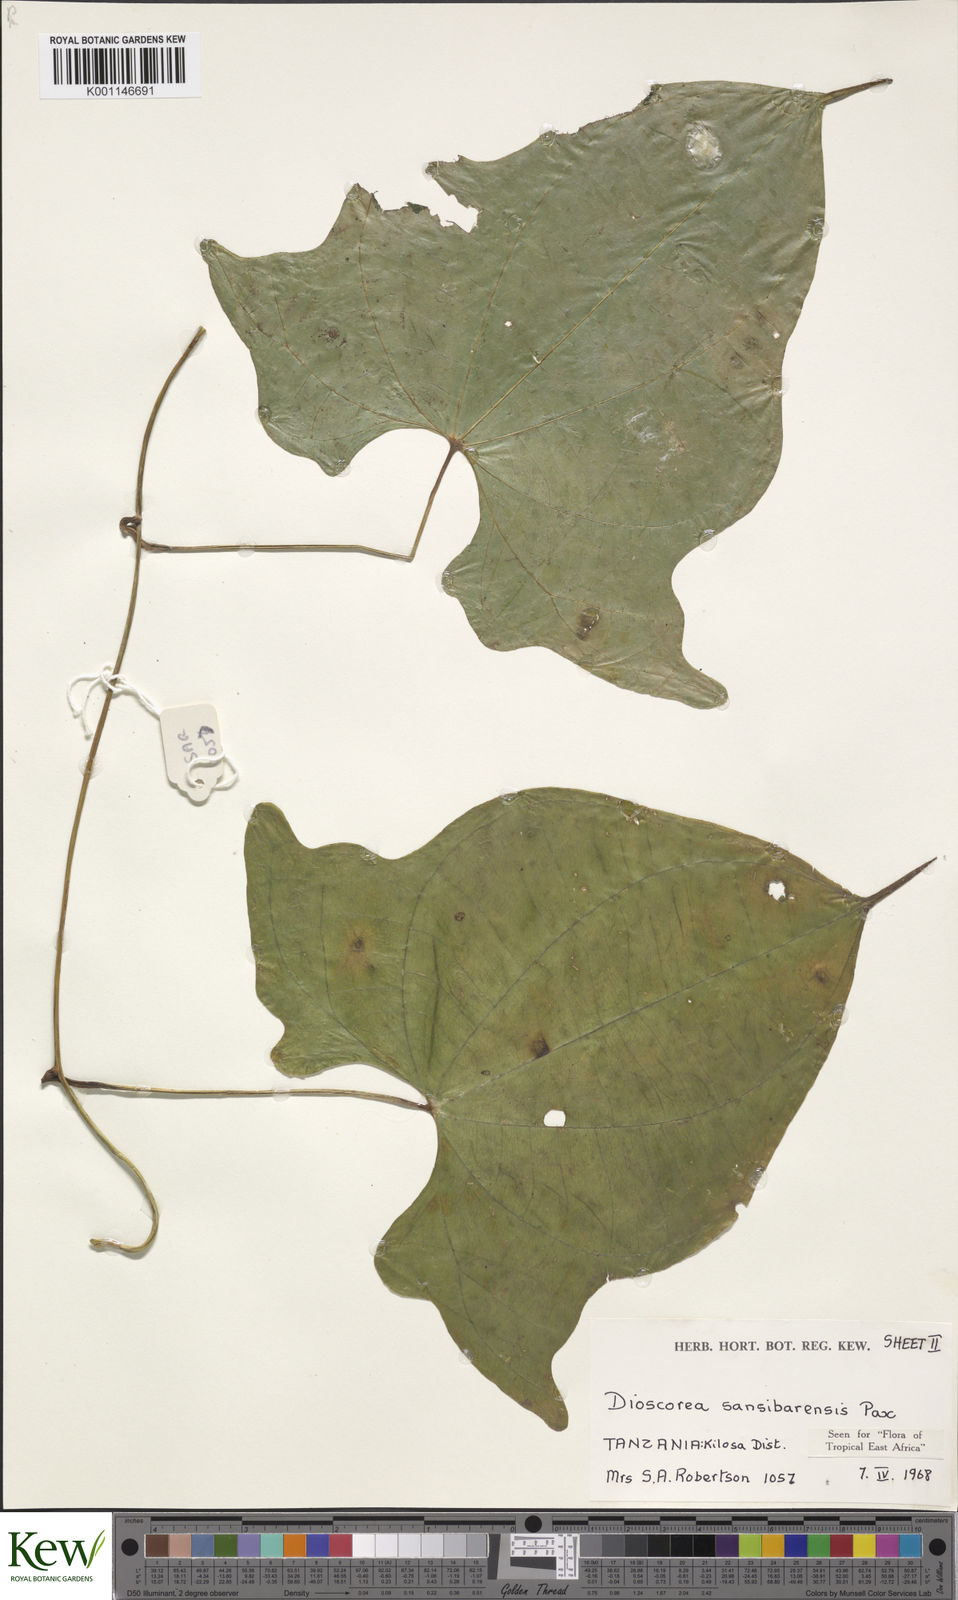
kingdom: Plantae
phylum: Tracheophyta
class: Liliopsida
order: Dioscoreales
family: Dioscoreaceae
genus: Dioscorea
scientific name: Dioscorea sansibarensis
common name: Zanzibar yam
